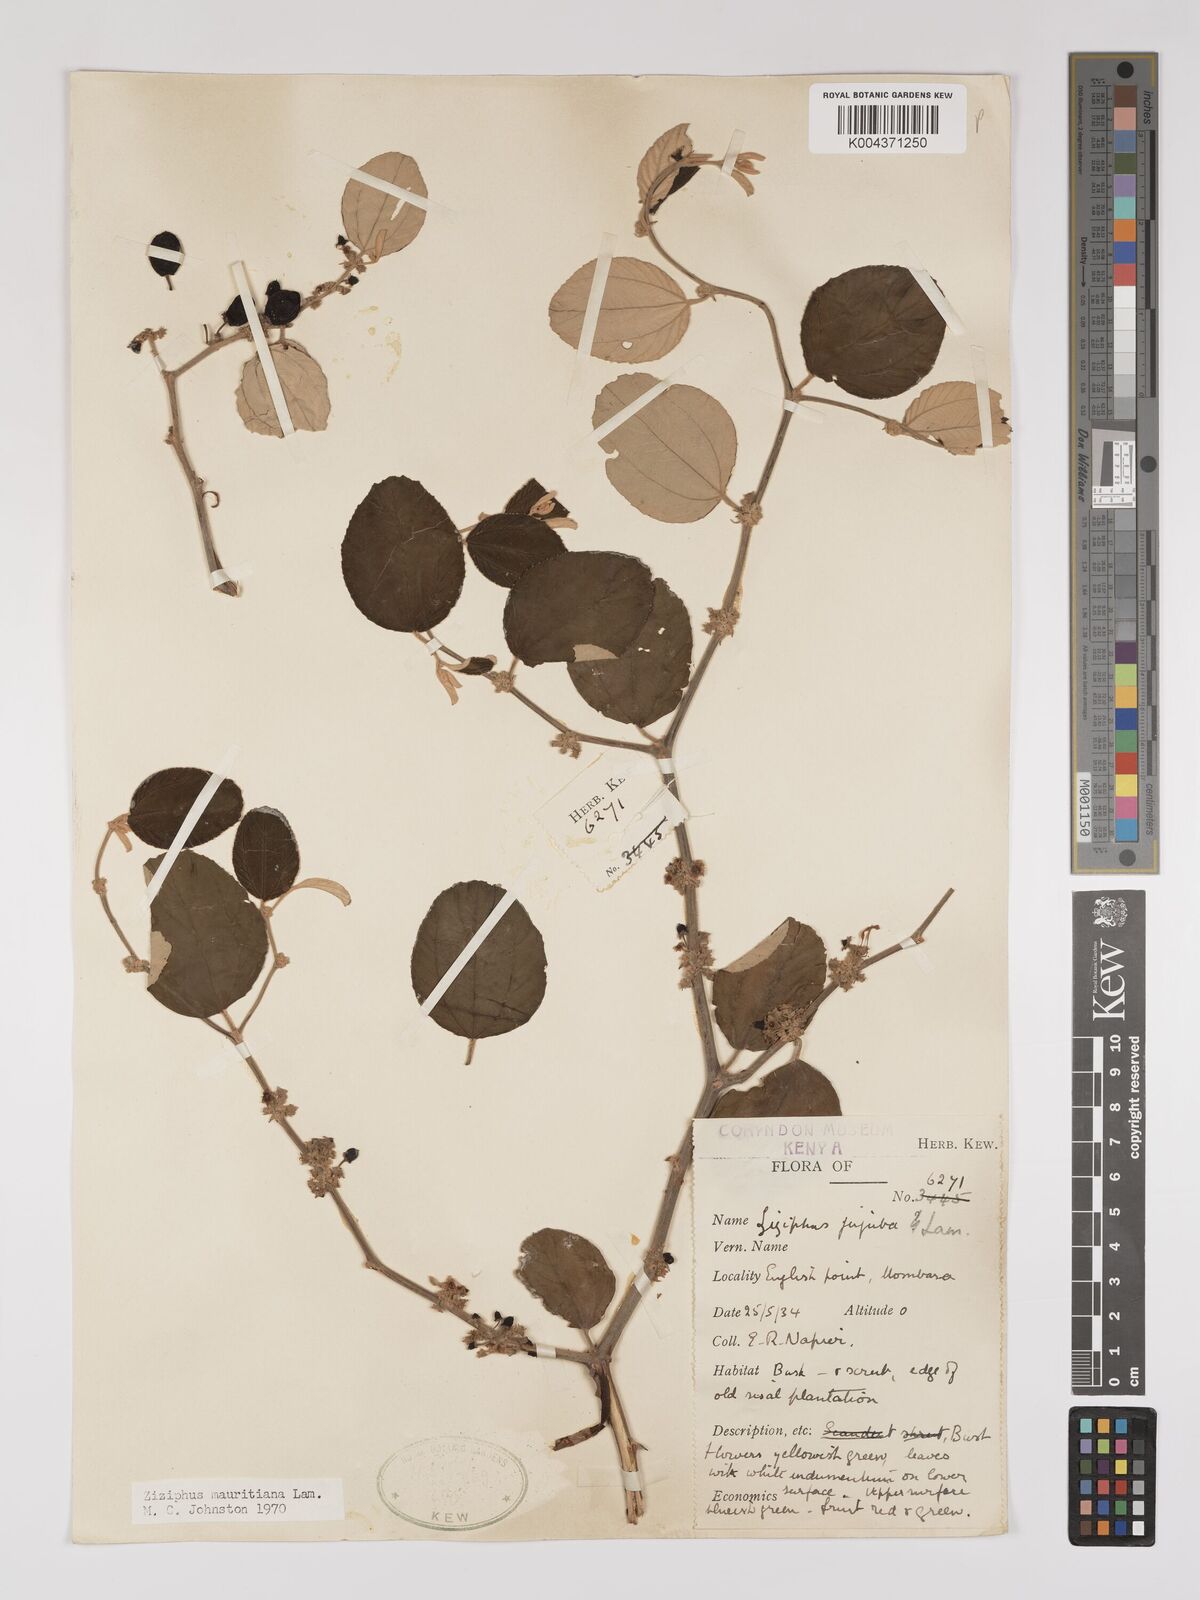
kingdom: Plantae
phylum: Tracheophyta
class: Magnoliopsida
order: Rosales
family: Rhamnaceae
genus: Ziziphus
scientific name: Ziziphus mauritiana
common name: Indian jujube
